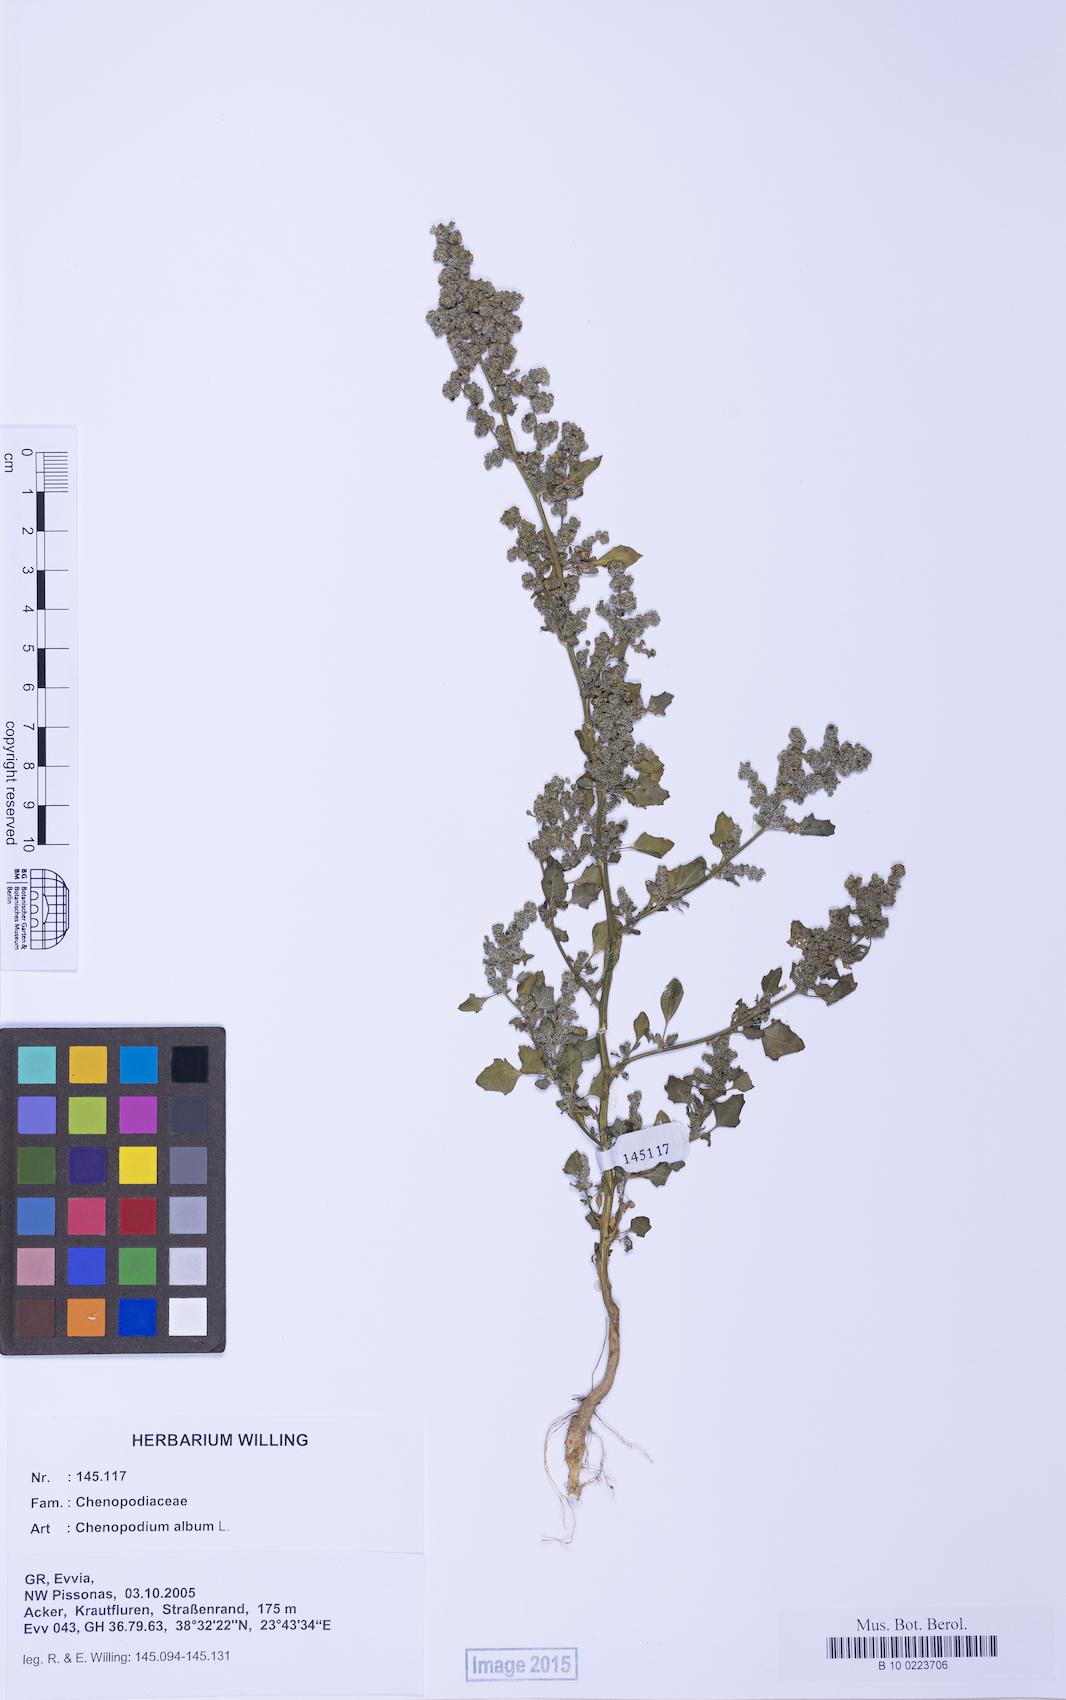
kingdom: Plantae
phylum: Tracheophyta
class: Magnoliopsida
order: Caryophyllales
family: Amaranthaceae
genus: Chenopodium
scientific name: Chenopodium album
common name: Fat-hen
